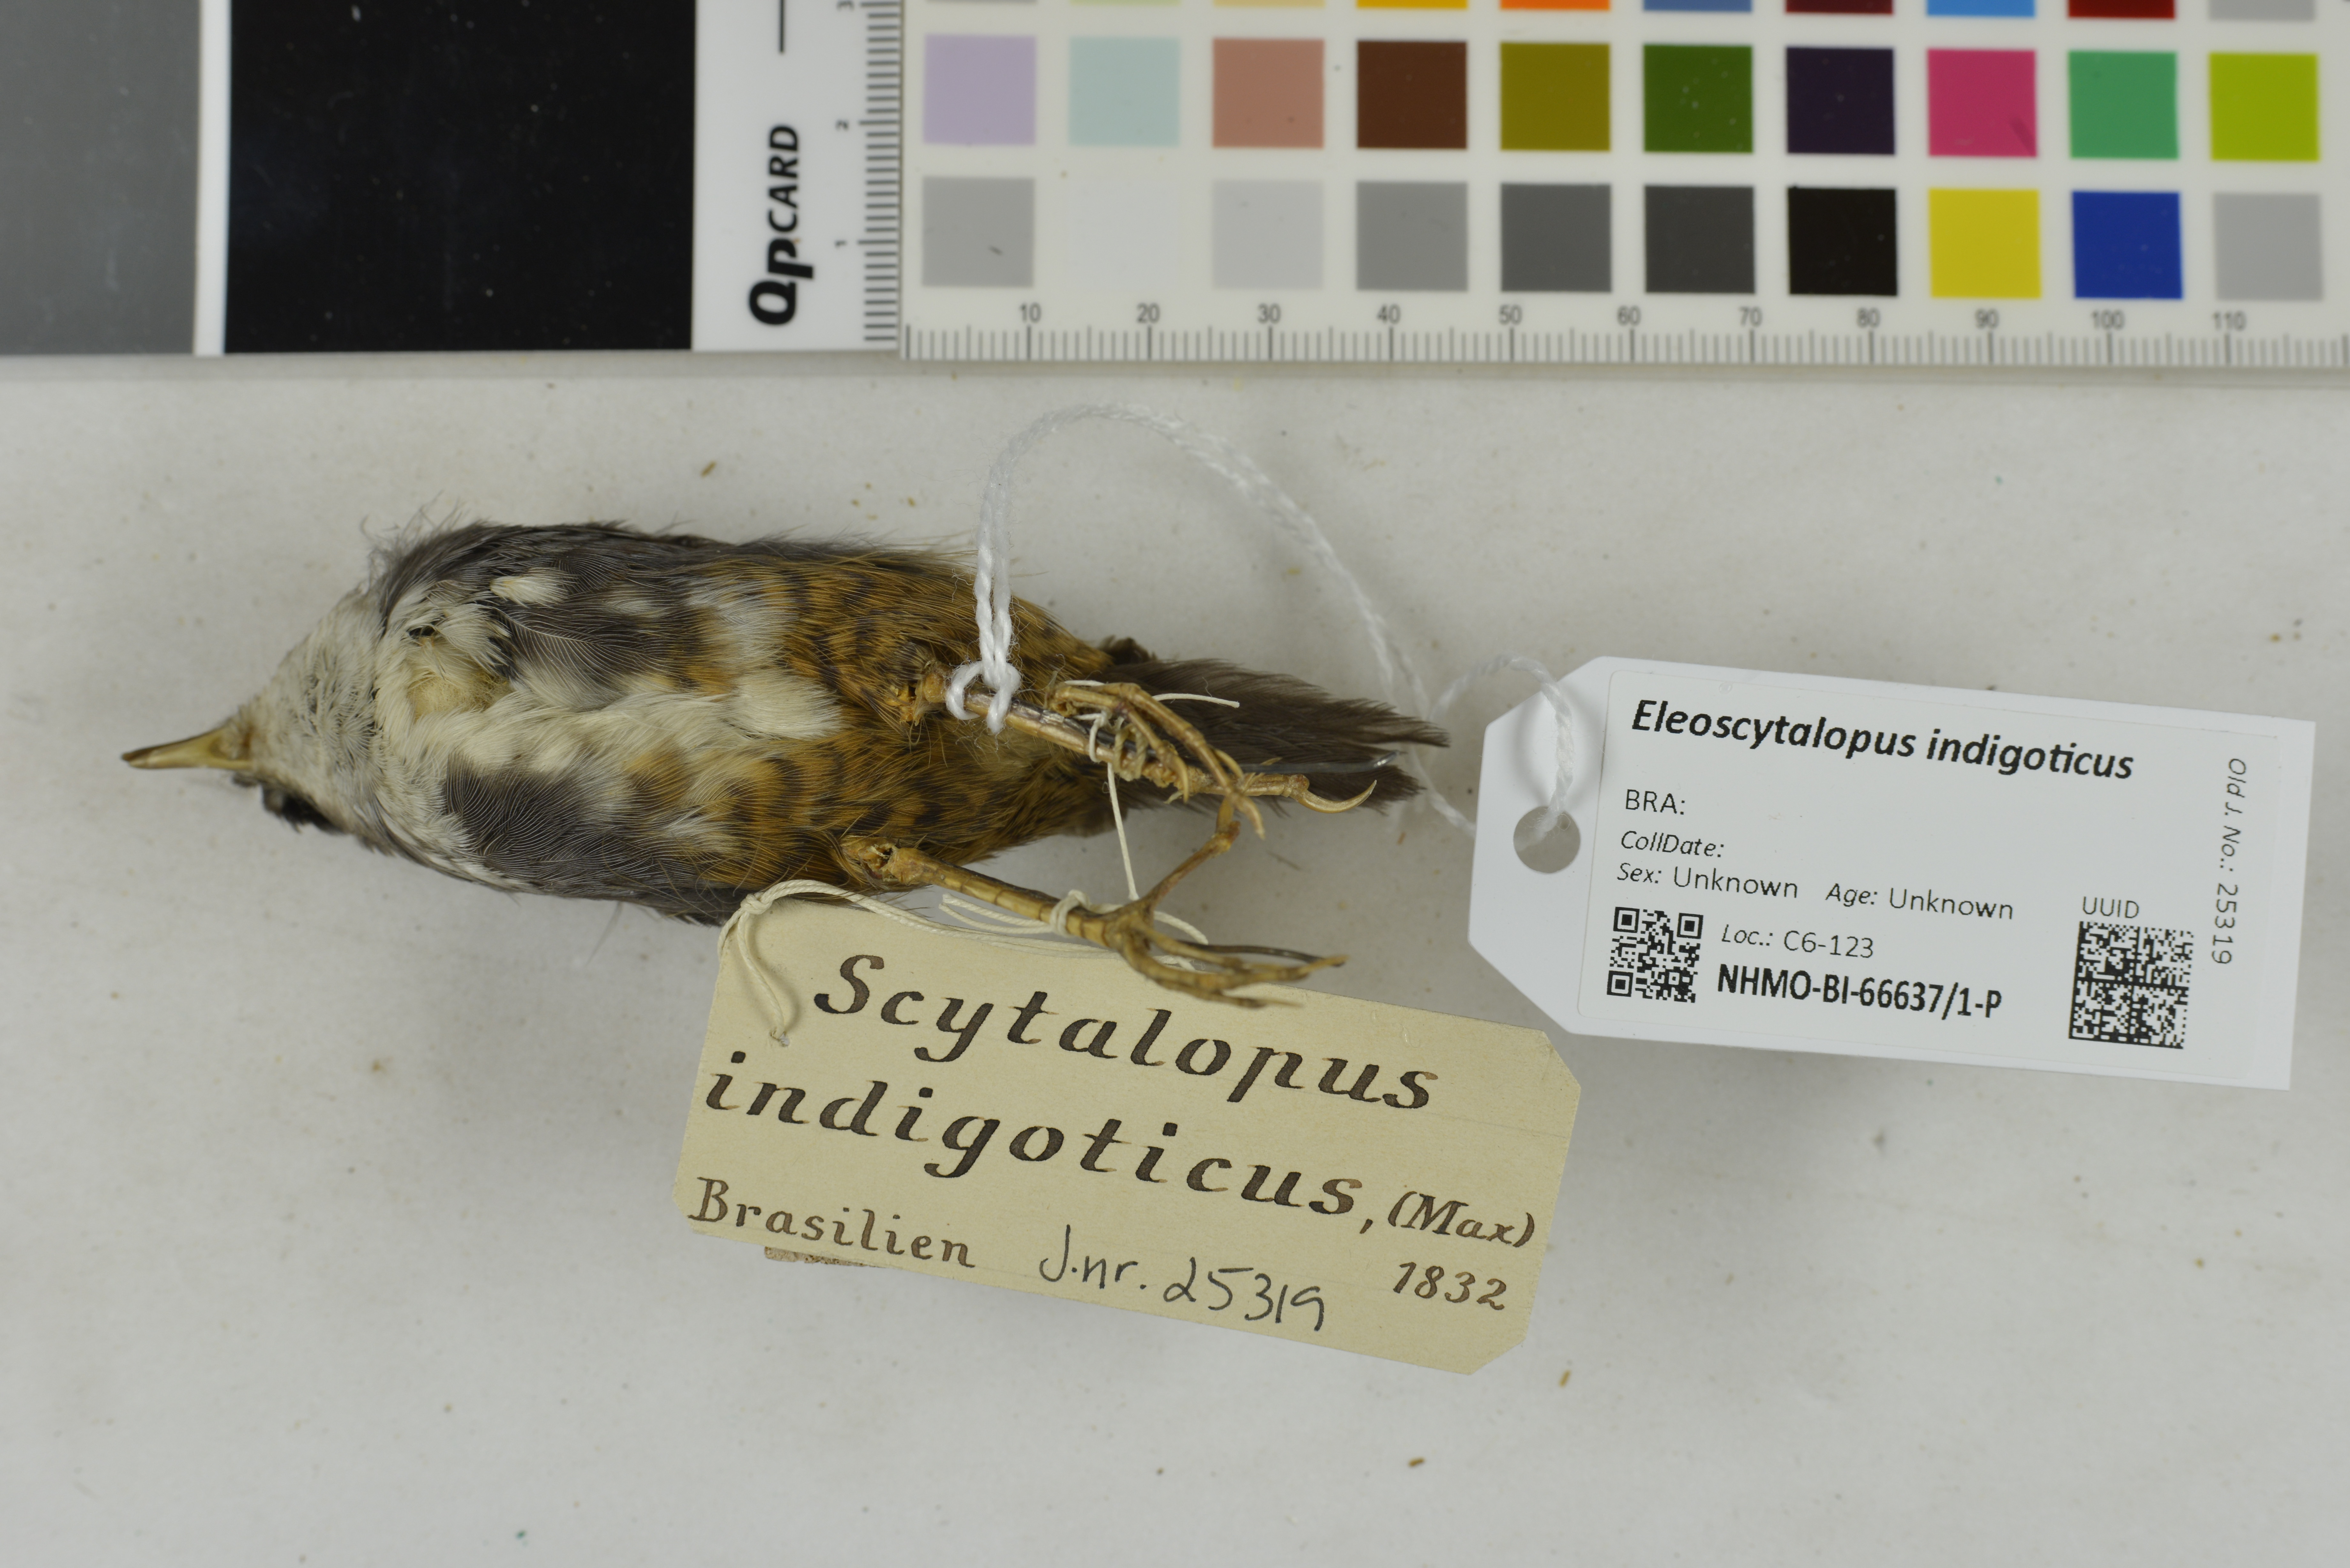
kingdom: Animalia
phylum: Chordata
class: Aves
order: Passeriformes
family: Rhinocryptidae
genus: Eleoscytalopus
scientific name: Eleoscytalopus indigoticus
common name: White-breasted tapaculo
